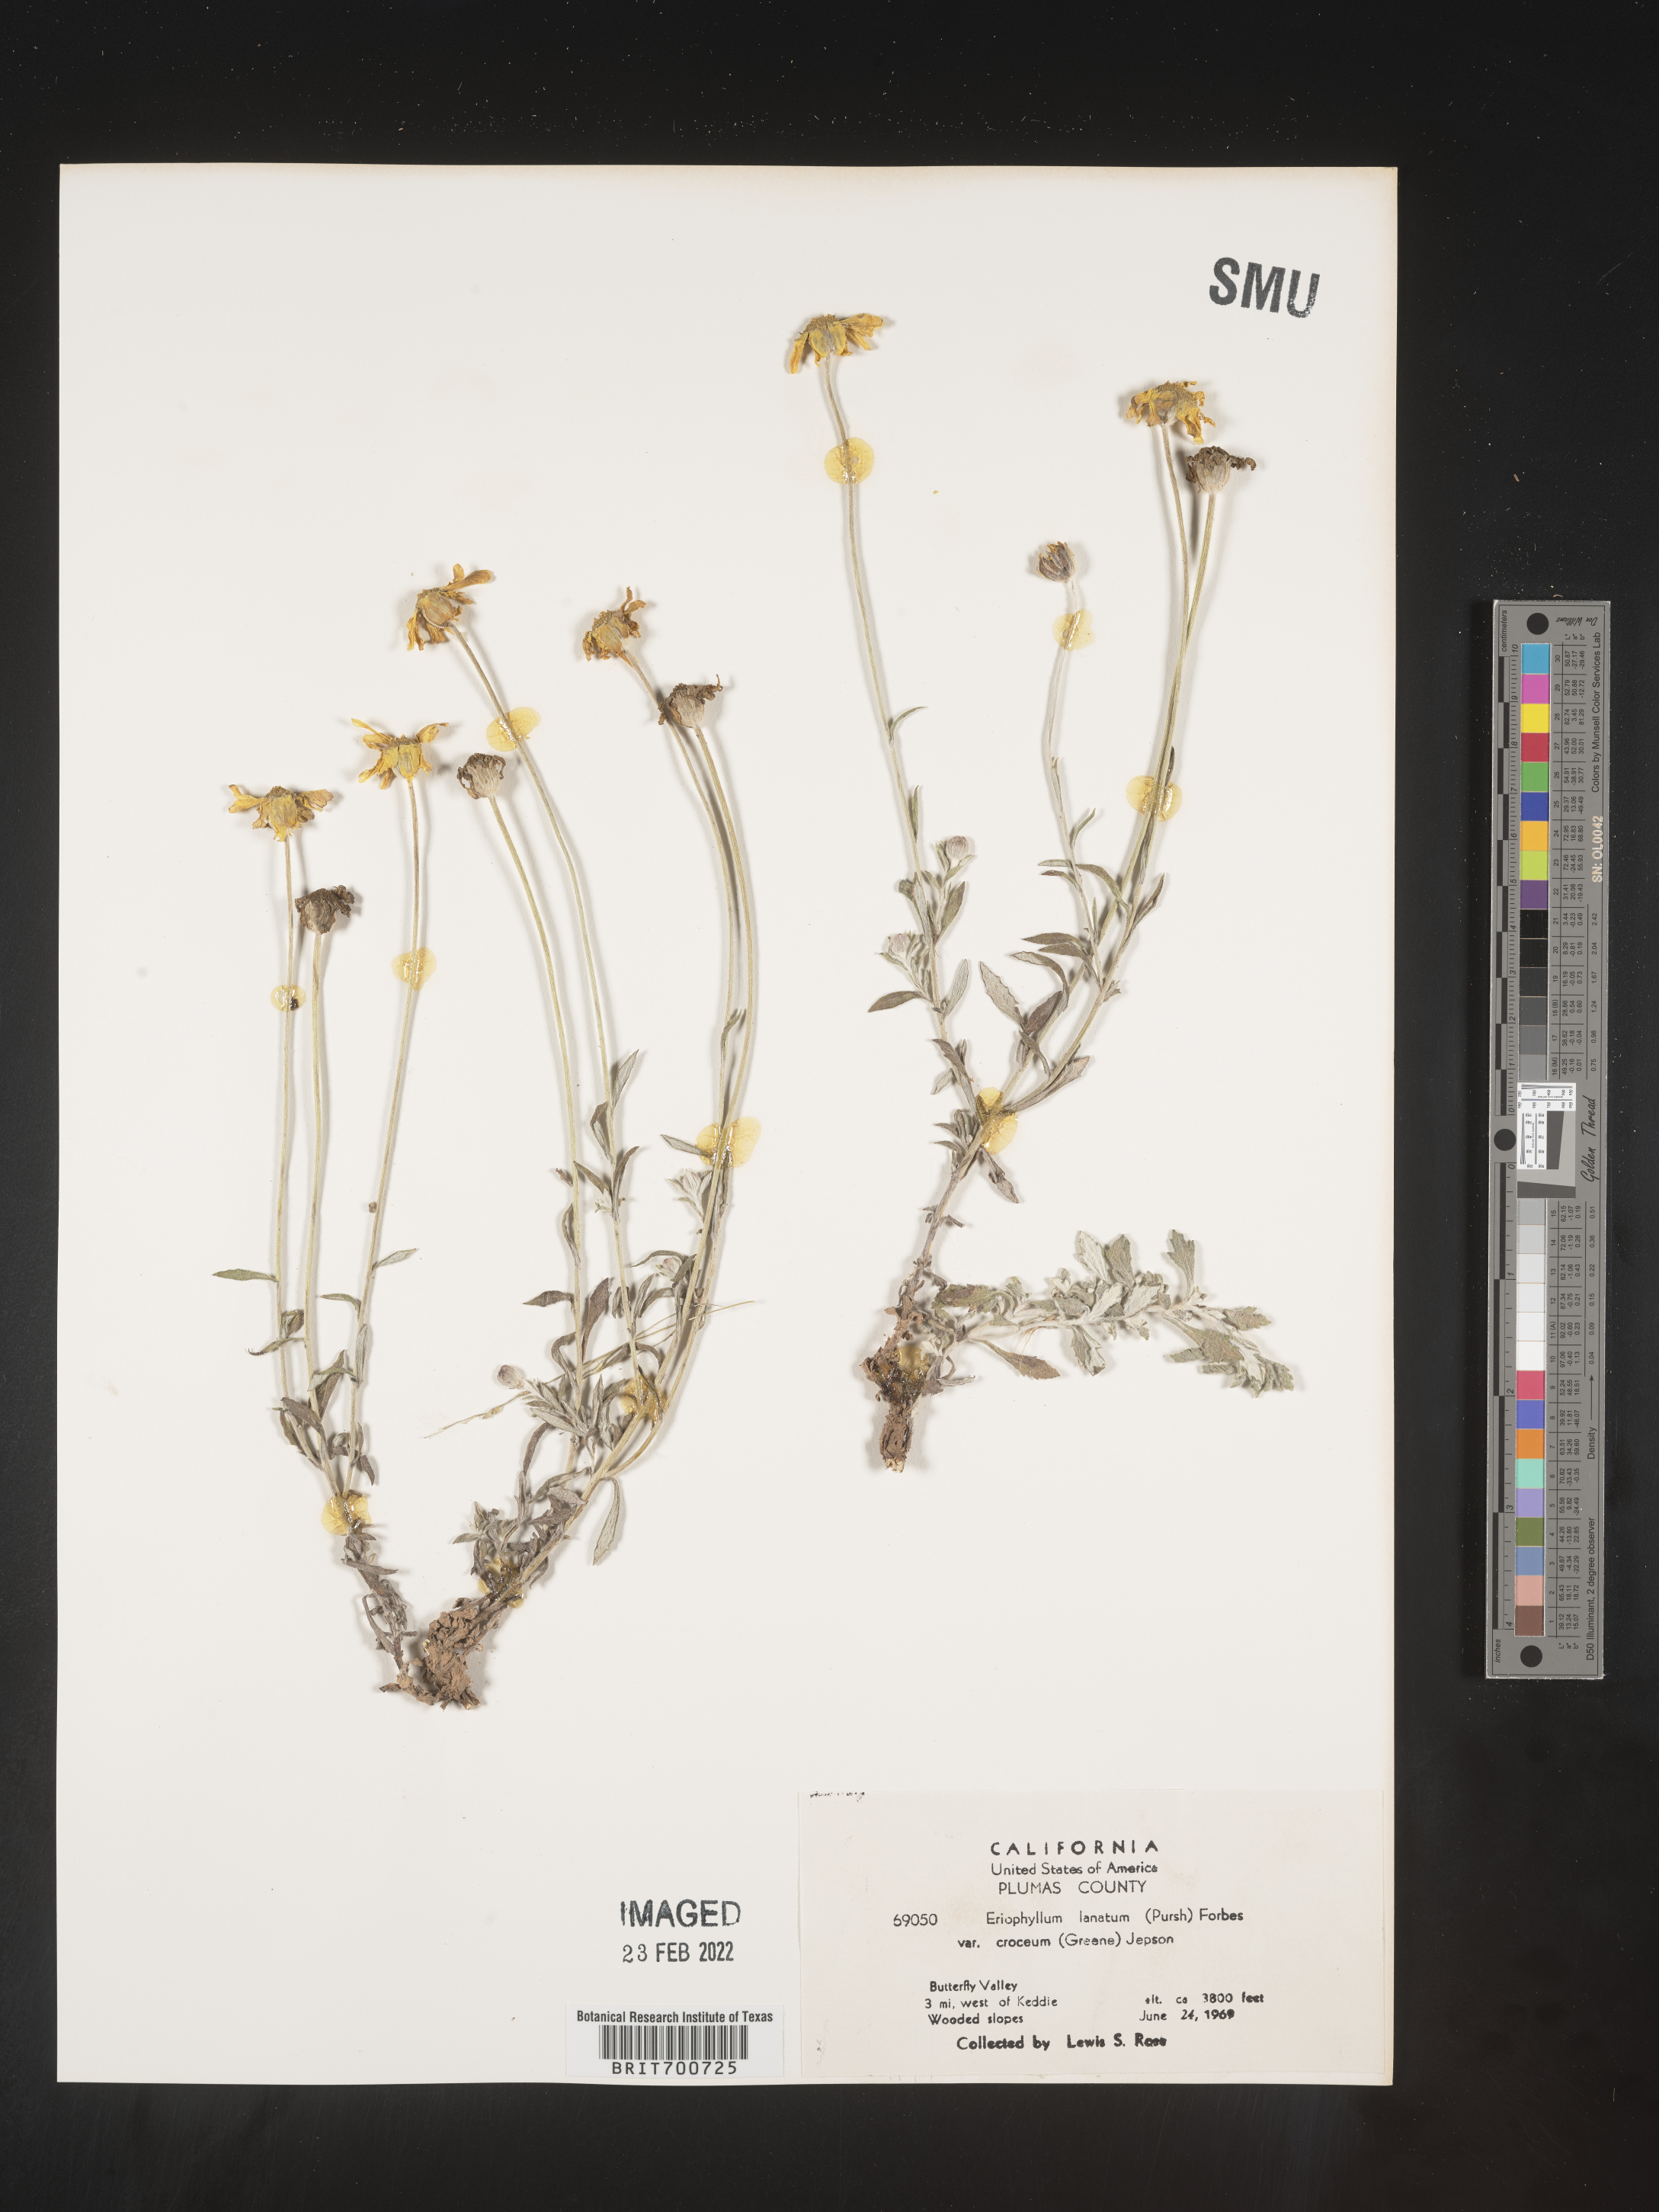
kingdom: Plantae
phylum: Tracheophyta
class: Magnoliopsida
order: Asterales
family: Asteraceae
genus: Eriophyllum
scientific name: Eriophyllum lanatum
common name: Common woolly-sunflower
